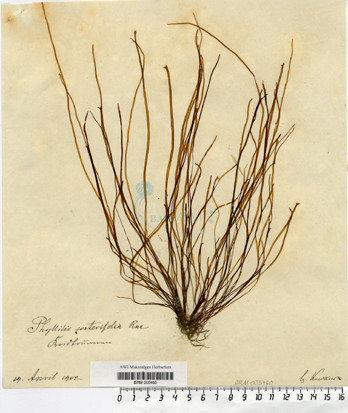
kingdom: Chromista
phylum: Ochrophyta
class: Phaeophyceae
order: Scytosiphonales
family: Scytosiphonaceae
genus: Petalonia
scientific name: Petalonia zosterifolia
